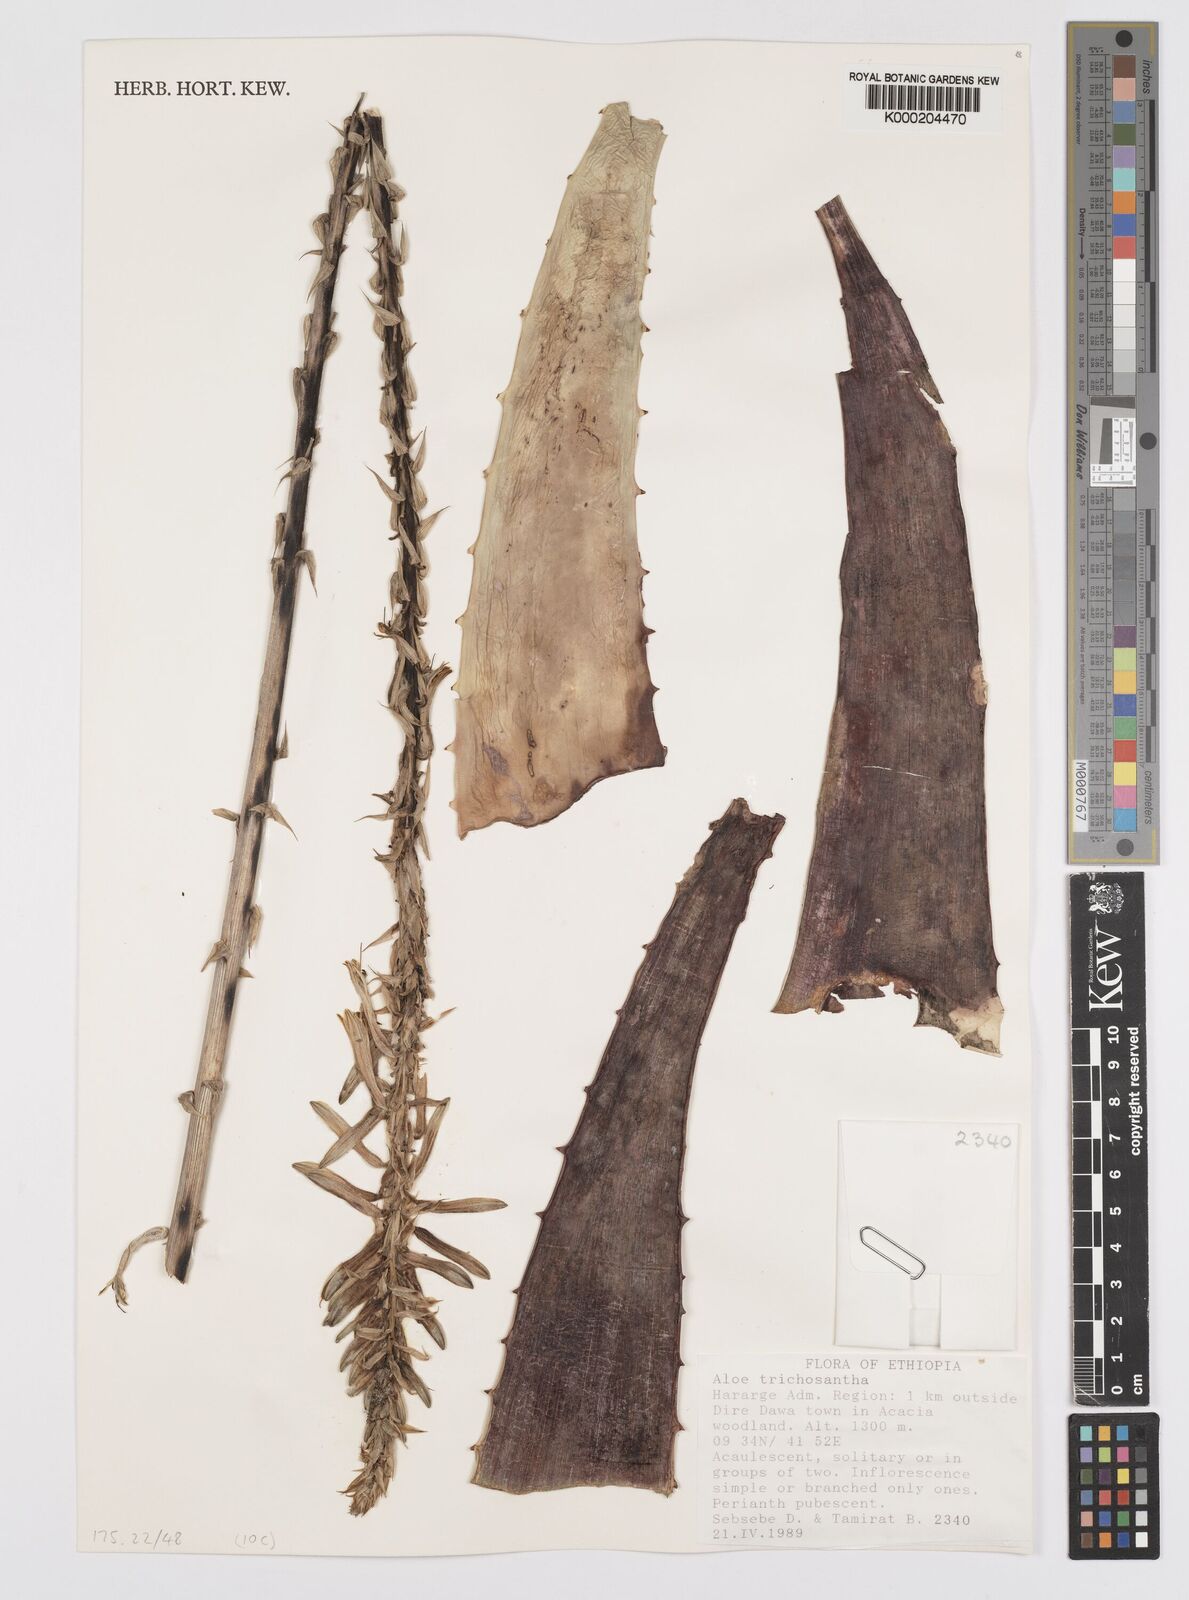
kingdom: Plantae
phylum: Tracheophyta
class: Liliopsida
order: Asparagales
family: Asphodelaceae
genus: Aloe
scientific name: Aloe trichosantha
